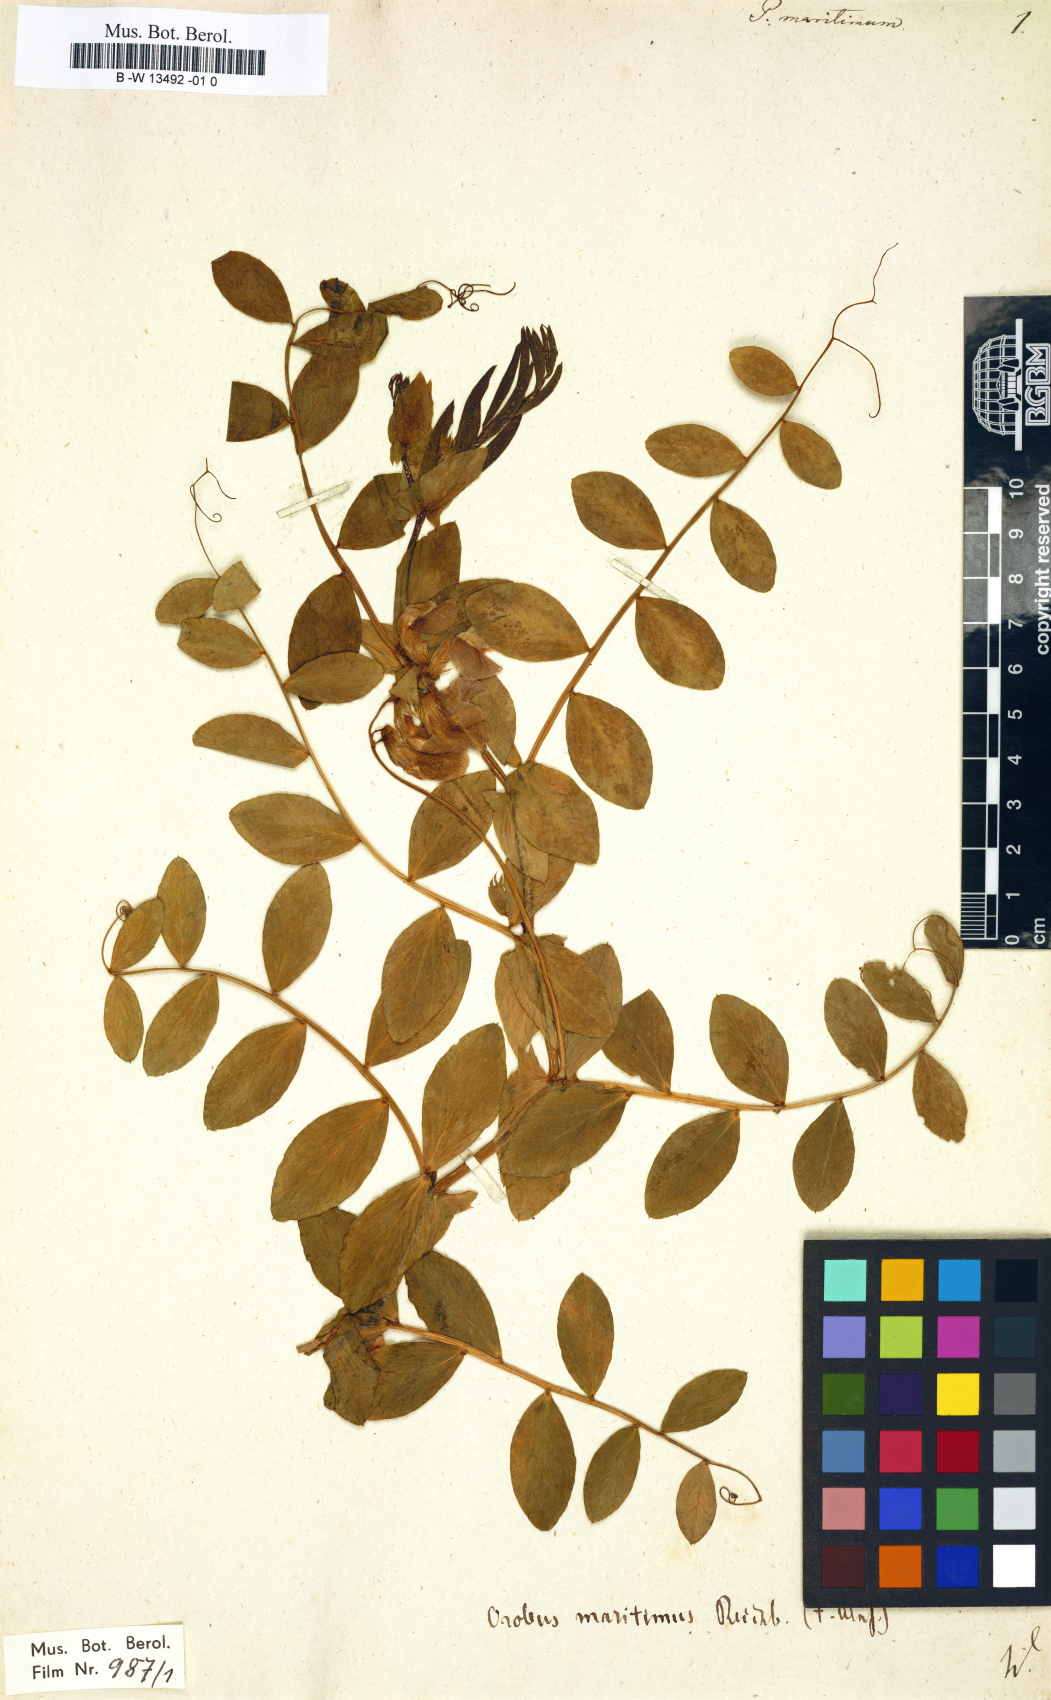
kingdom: Plantae
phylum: Tracheophyta
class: Magnoliopsida
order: Fabales
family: Fabaceae
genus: Lathyrus
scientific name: Lathyrus japonicus
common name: Sea pea
